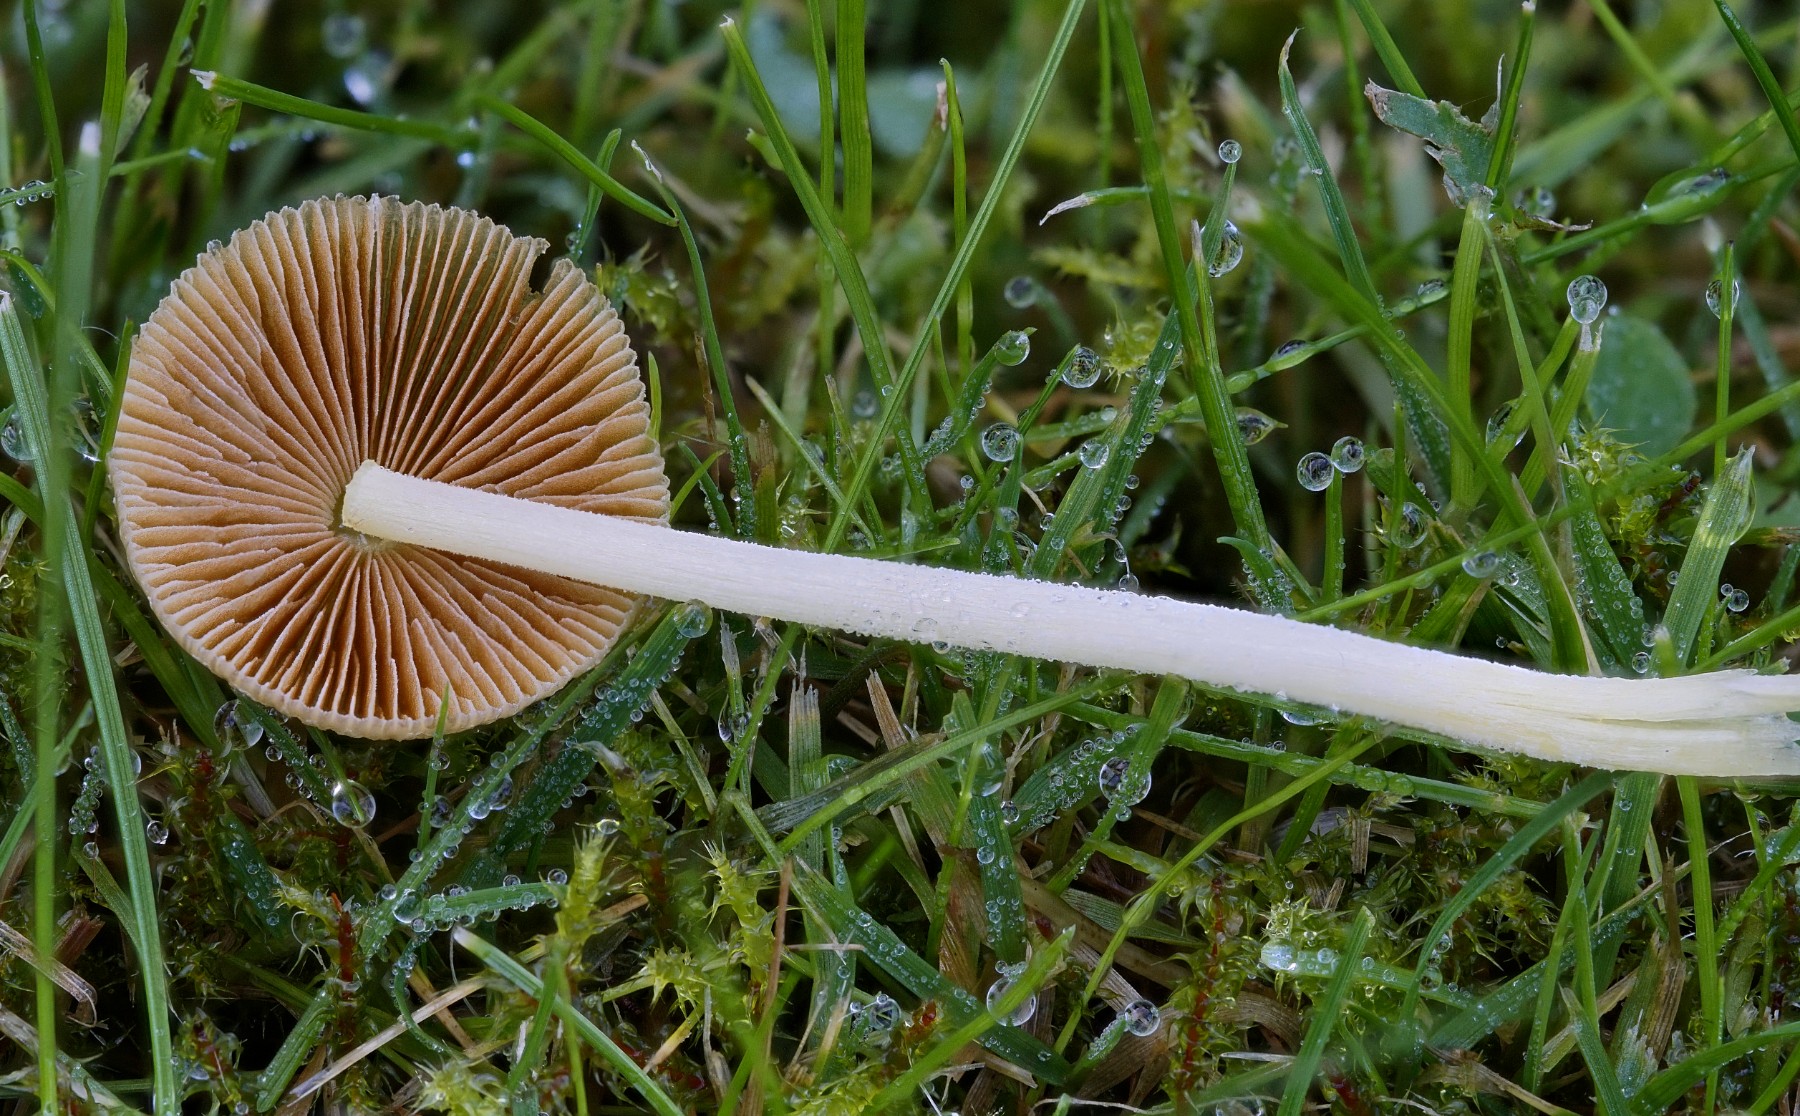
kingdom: Fungi
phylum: Basidiomycota
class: Agaricomycetes
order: Agaricales
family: Bolbitiaceae
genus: Bolbitius
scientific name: Bolbitius titubans
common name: almindelig gulhat
